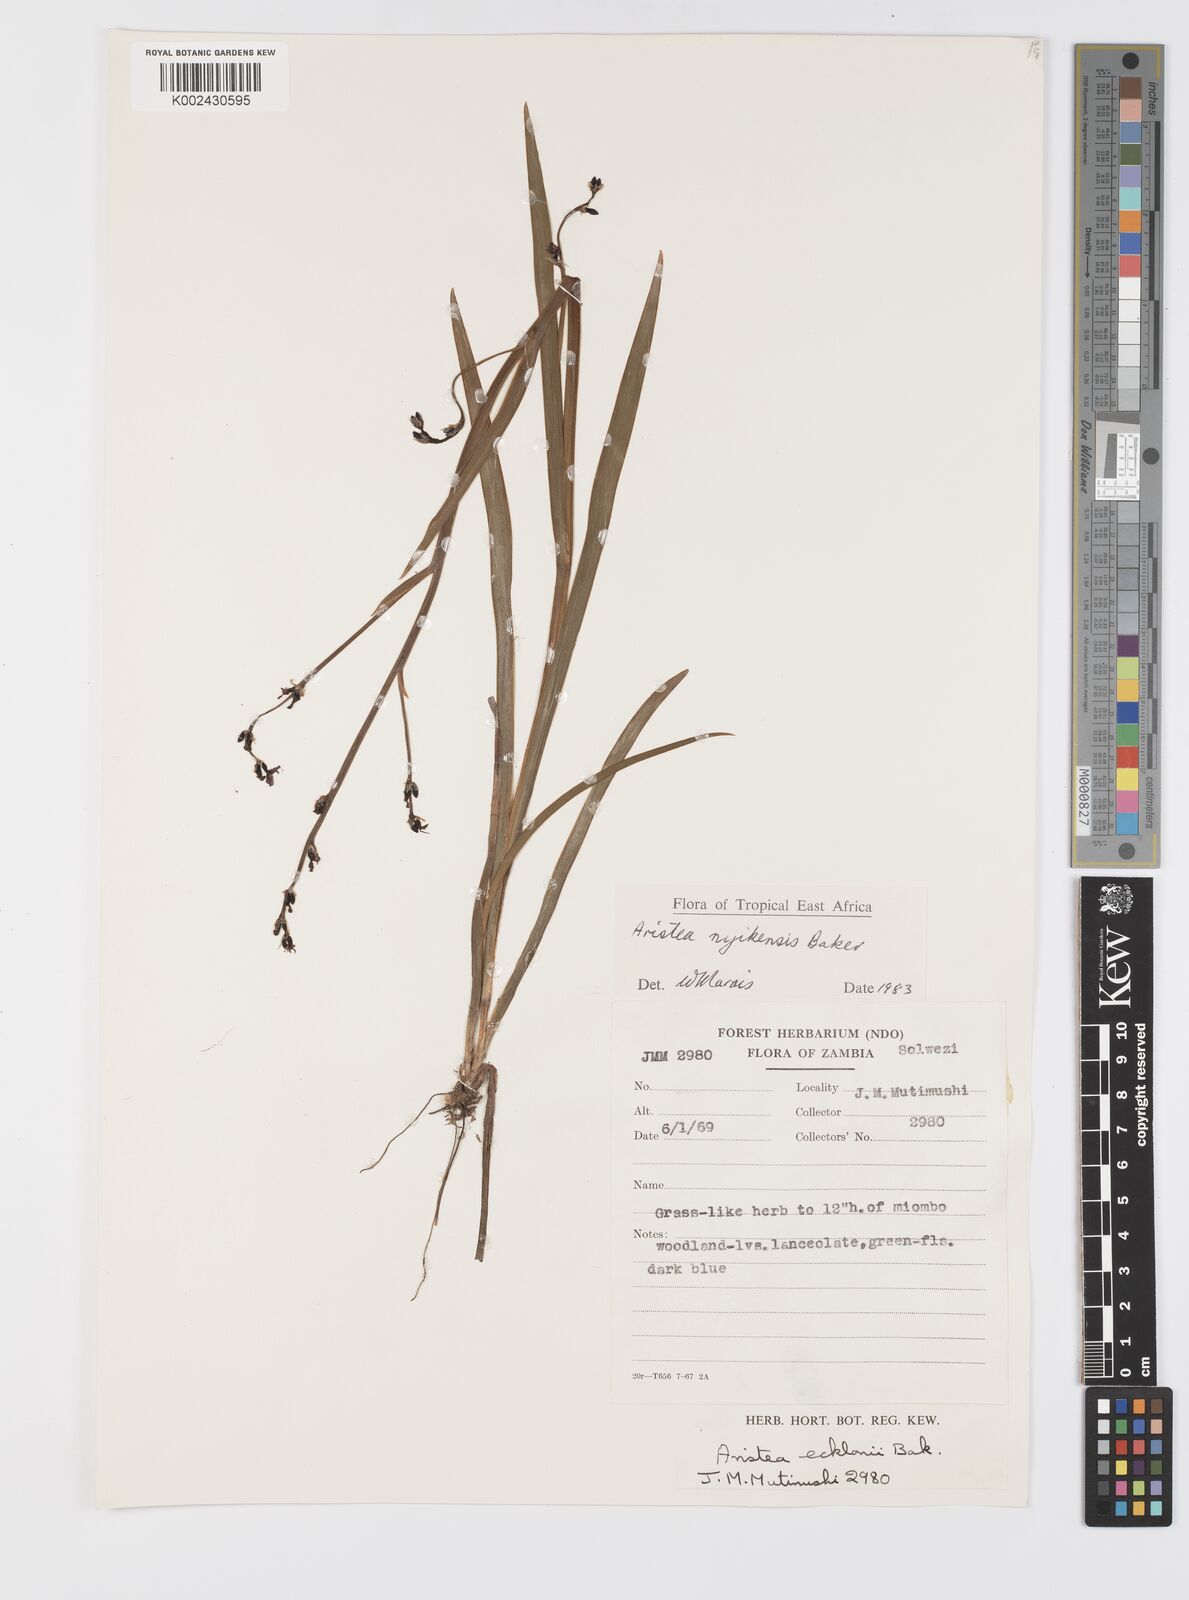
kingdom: Plantae
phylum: Tracheophyta
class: Liliopsida
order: Asparagales
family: Iridaceae
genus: Aristea
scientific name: Aristea nyikensis
